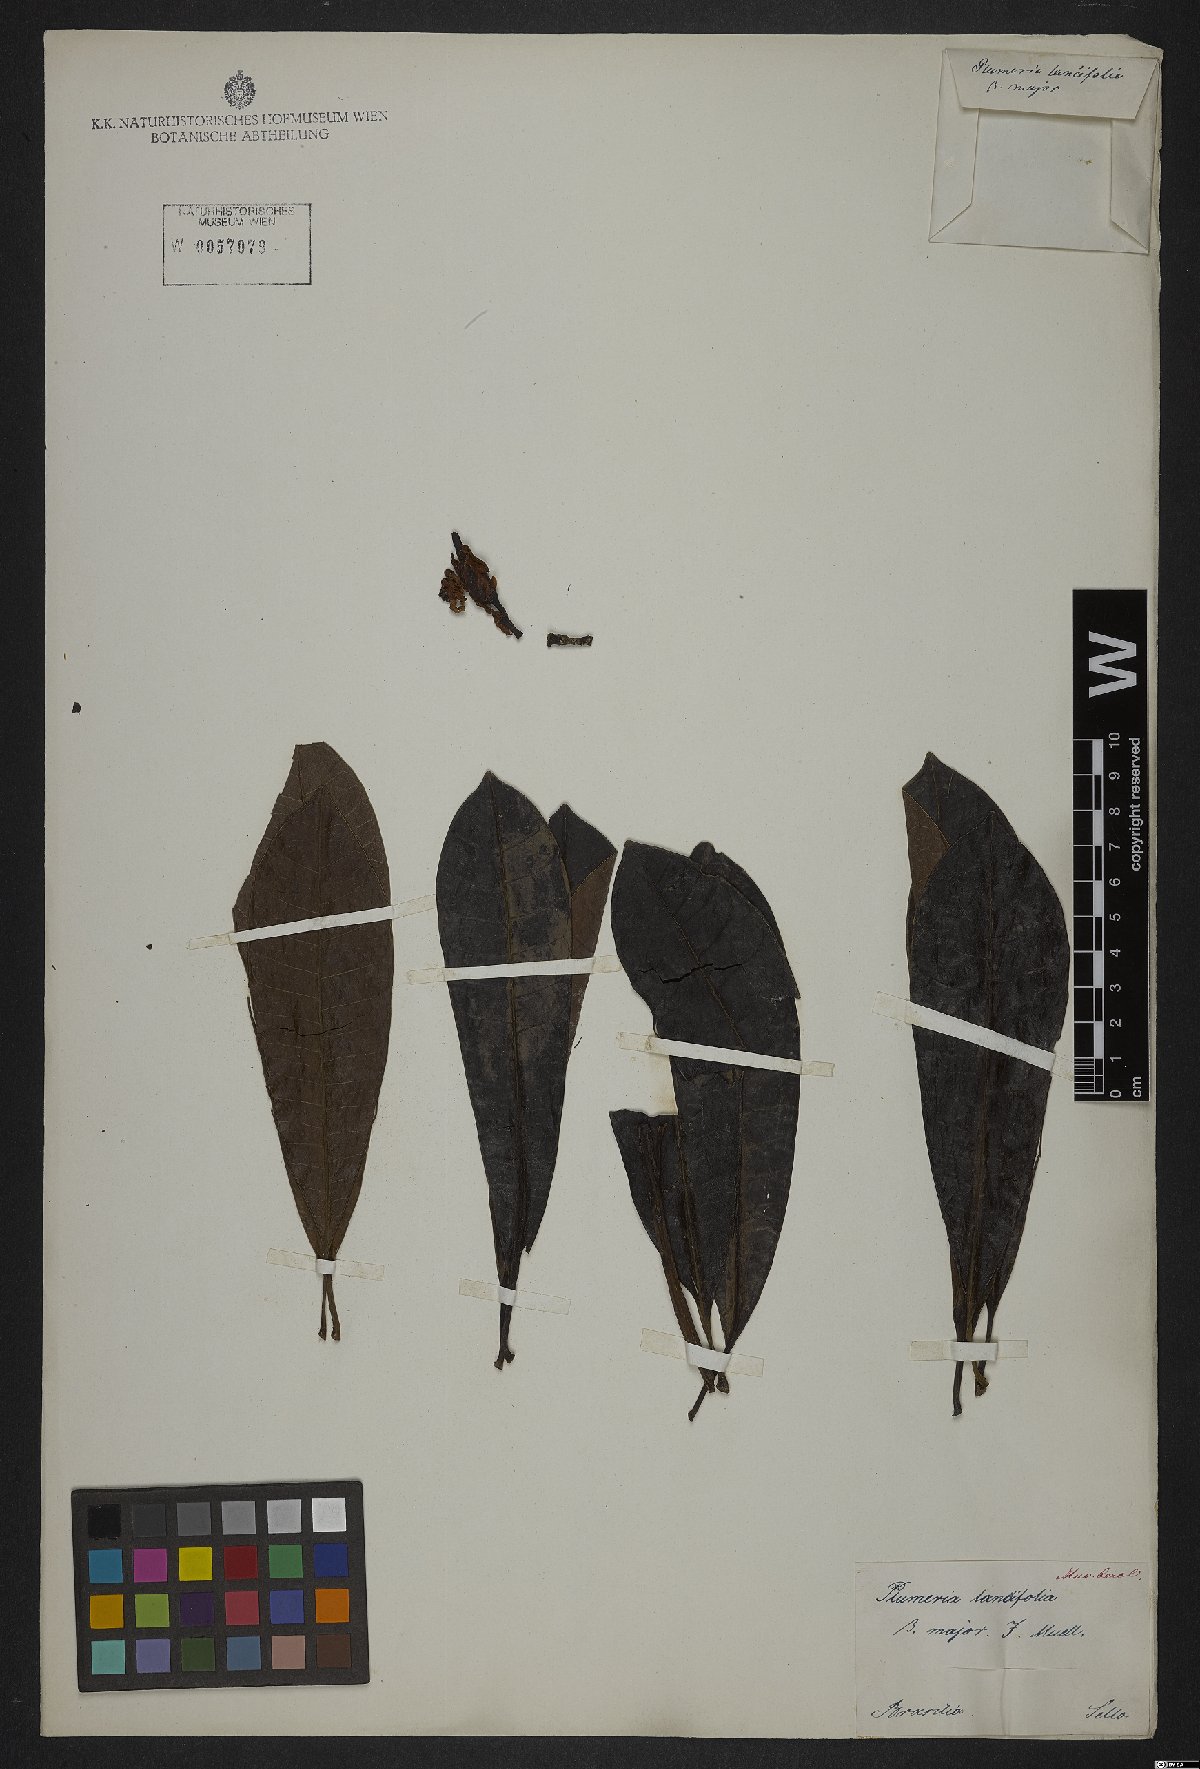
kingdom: Plantae
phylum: Tracheophyta
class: Magnoliopsida
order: Gentianales
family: Apocynaceae
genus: Himatanthus
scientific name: Himatanthus bracteatus
